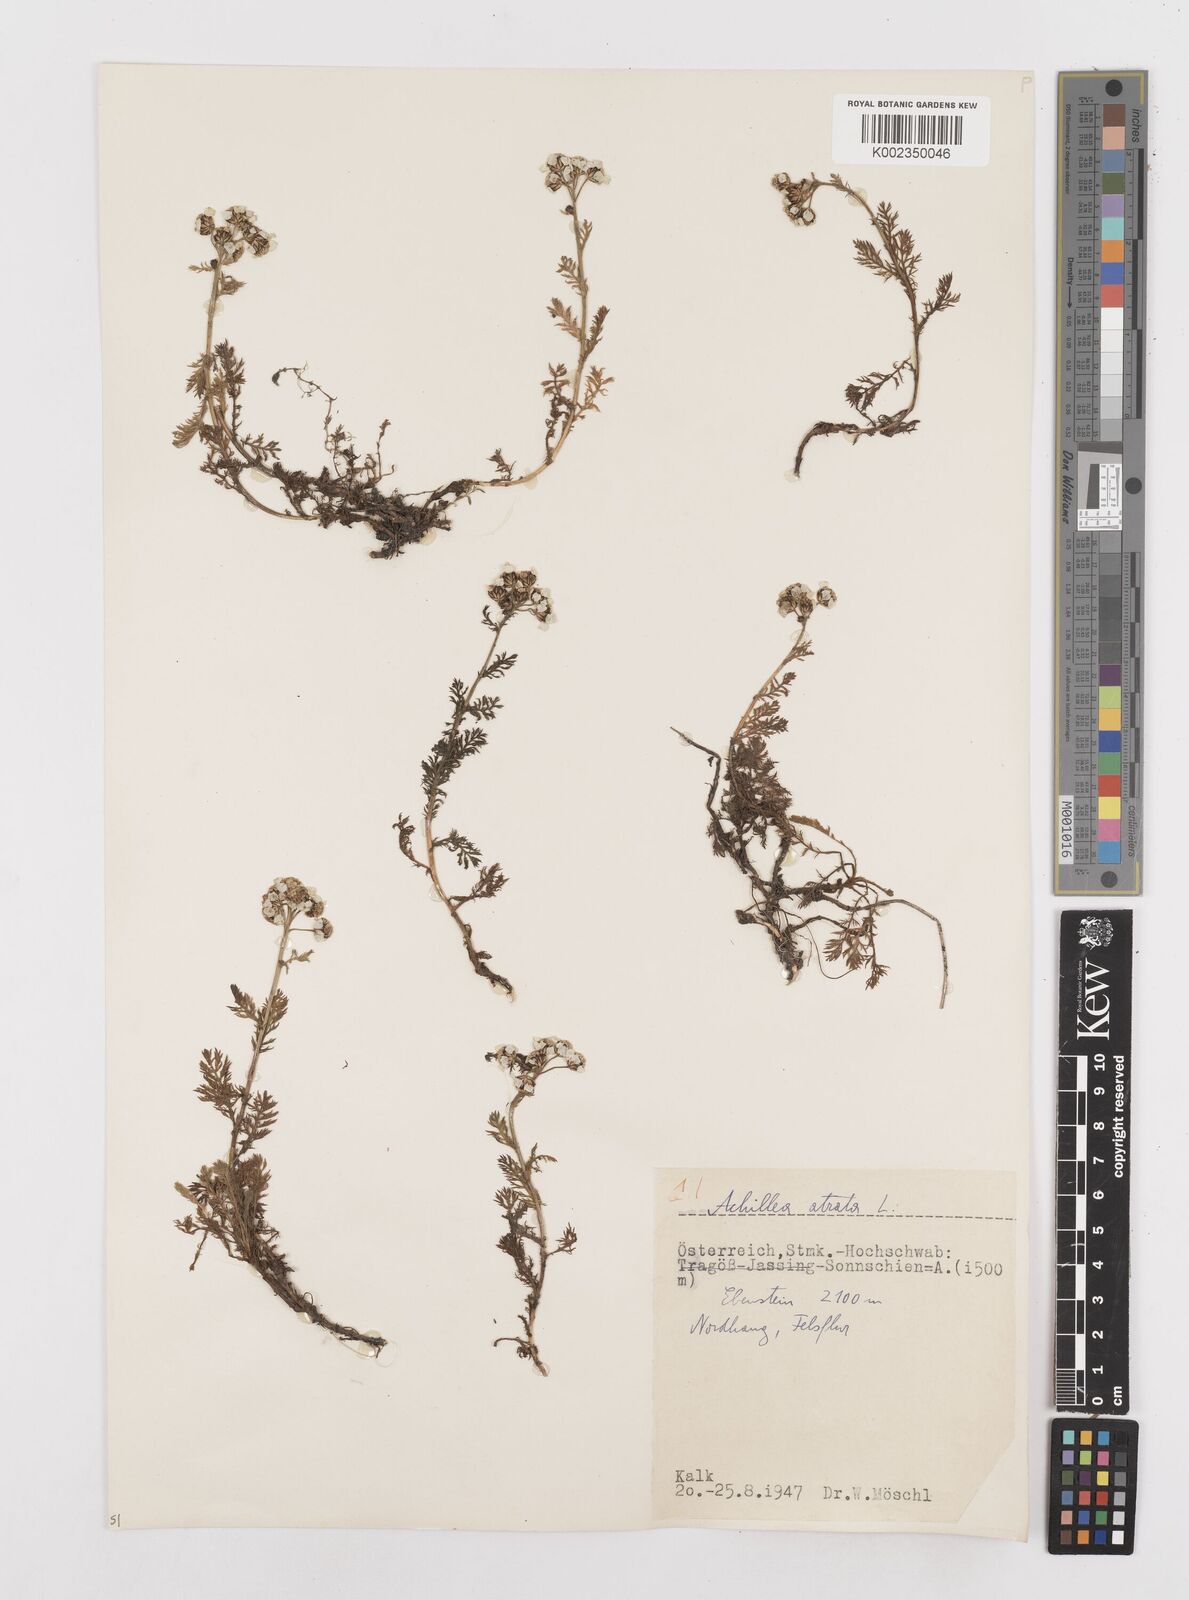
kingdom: Plantae
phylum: Tracheophyta
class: Magnoliopsida
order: Asterales
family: Asteraceae
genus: Achillea
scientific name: Achillea atrata
